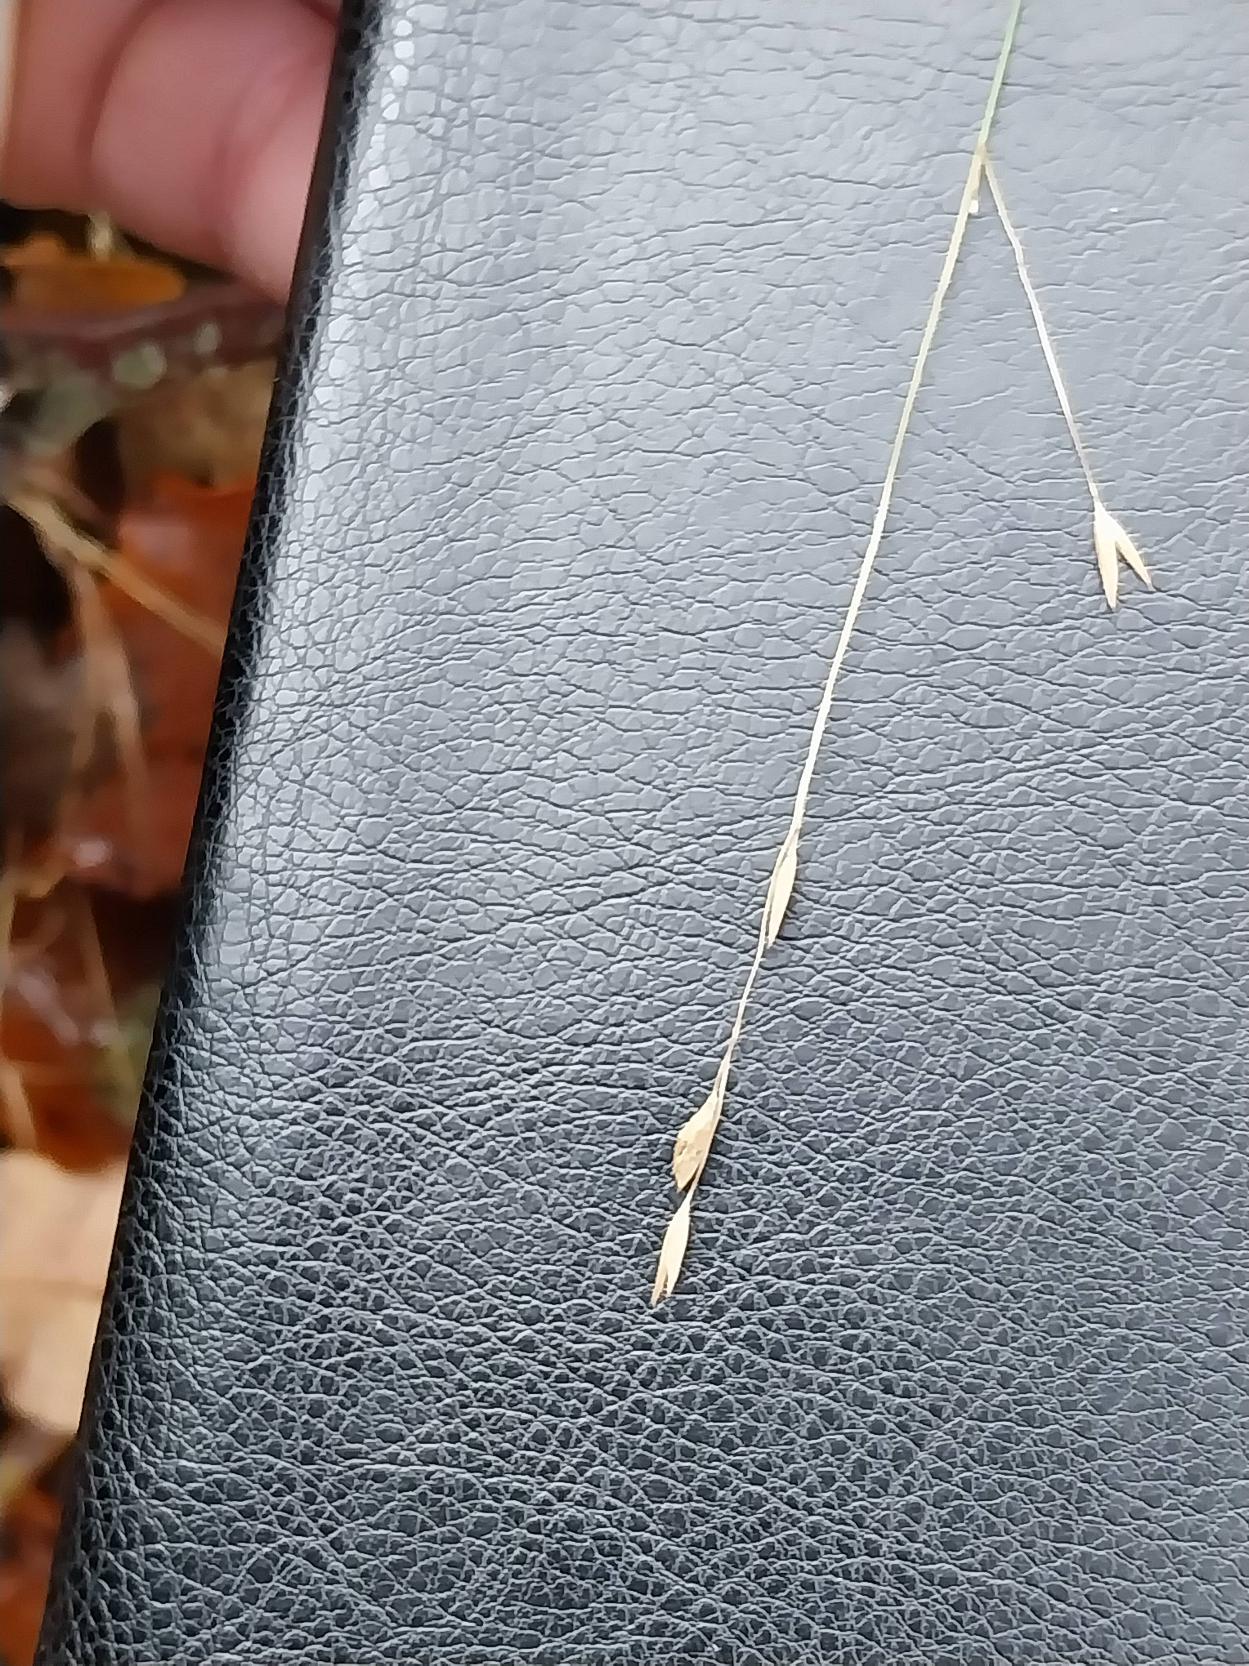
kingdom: Plantae
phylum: Tracheophyta
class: Liliopsida
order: Poales
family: Poaceae
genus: Melica
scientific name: Melica uniflora
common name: Enblomstret flitteraks
